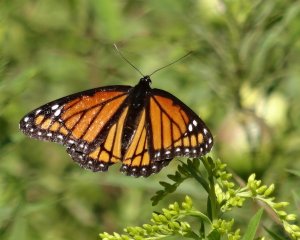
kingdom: Animalia
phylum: Arthropoda
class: Insecta
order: Lepidoptera
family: Nymphalidae
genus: Limenitis
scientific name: Limenitis archippus
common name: Viceroy
